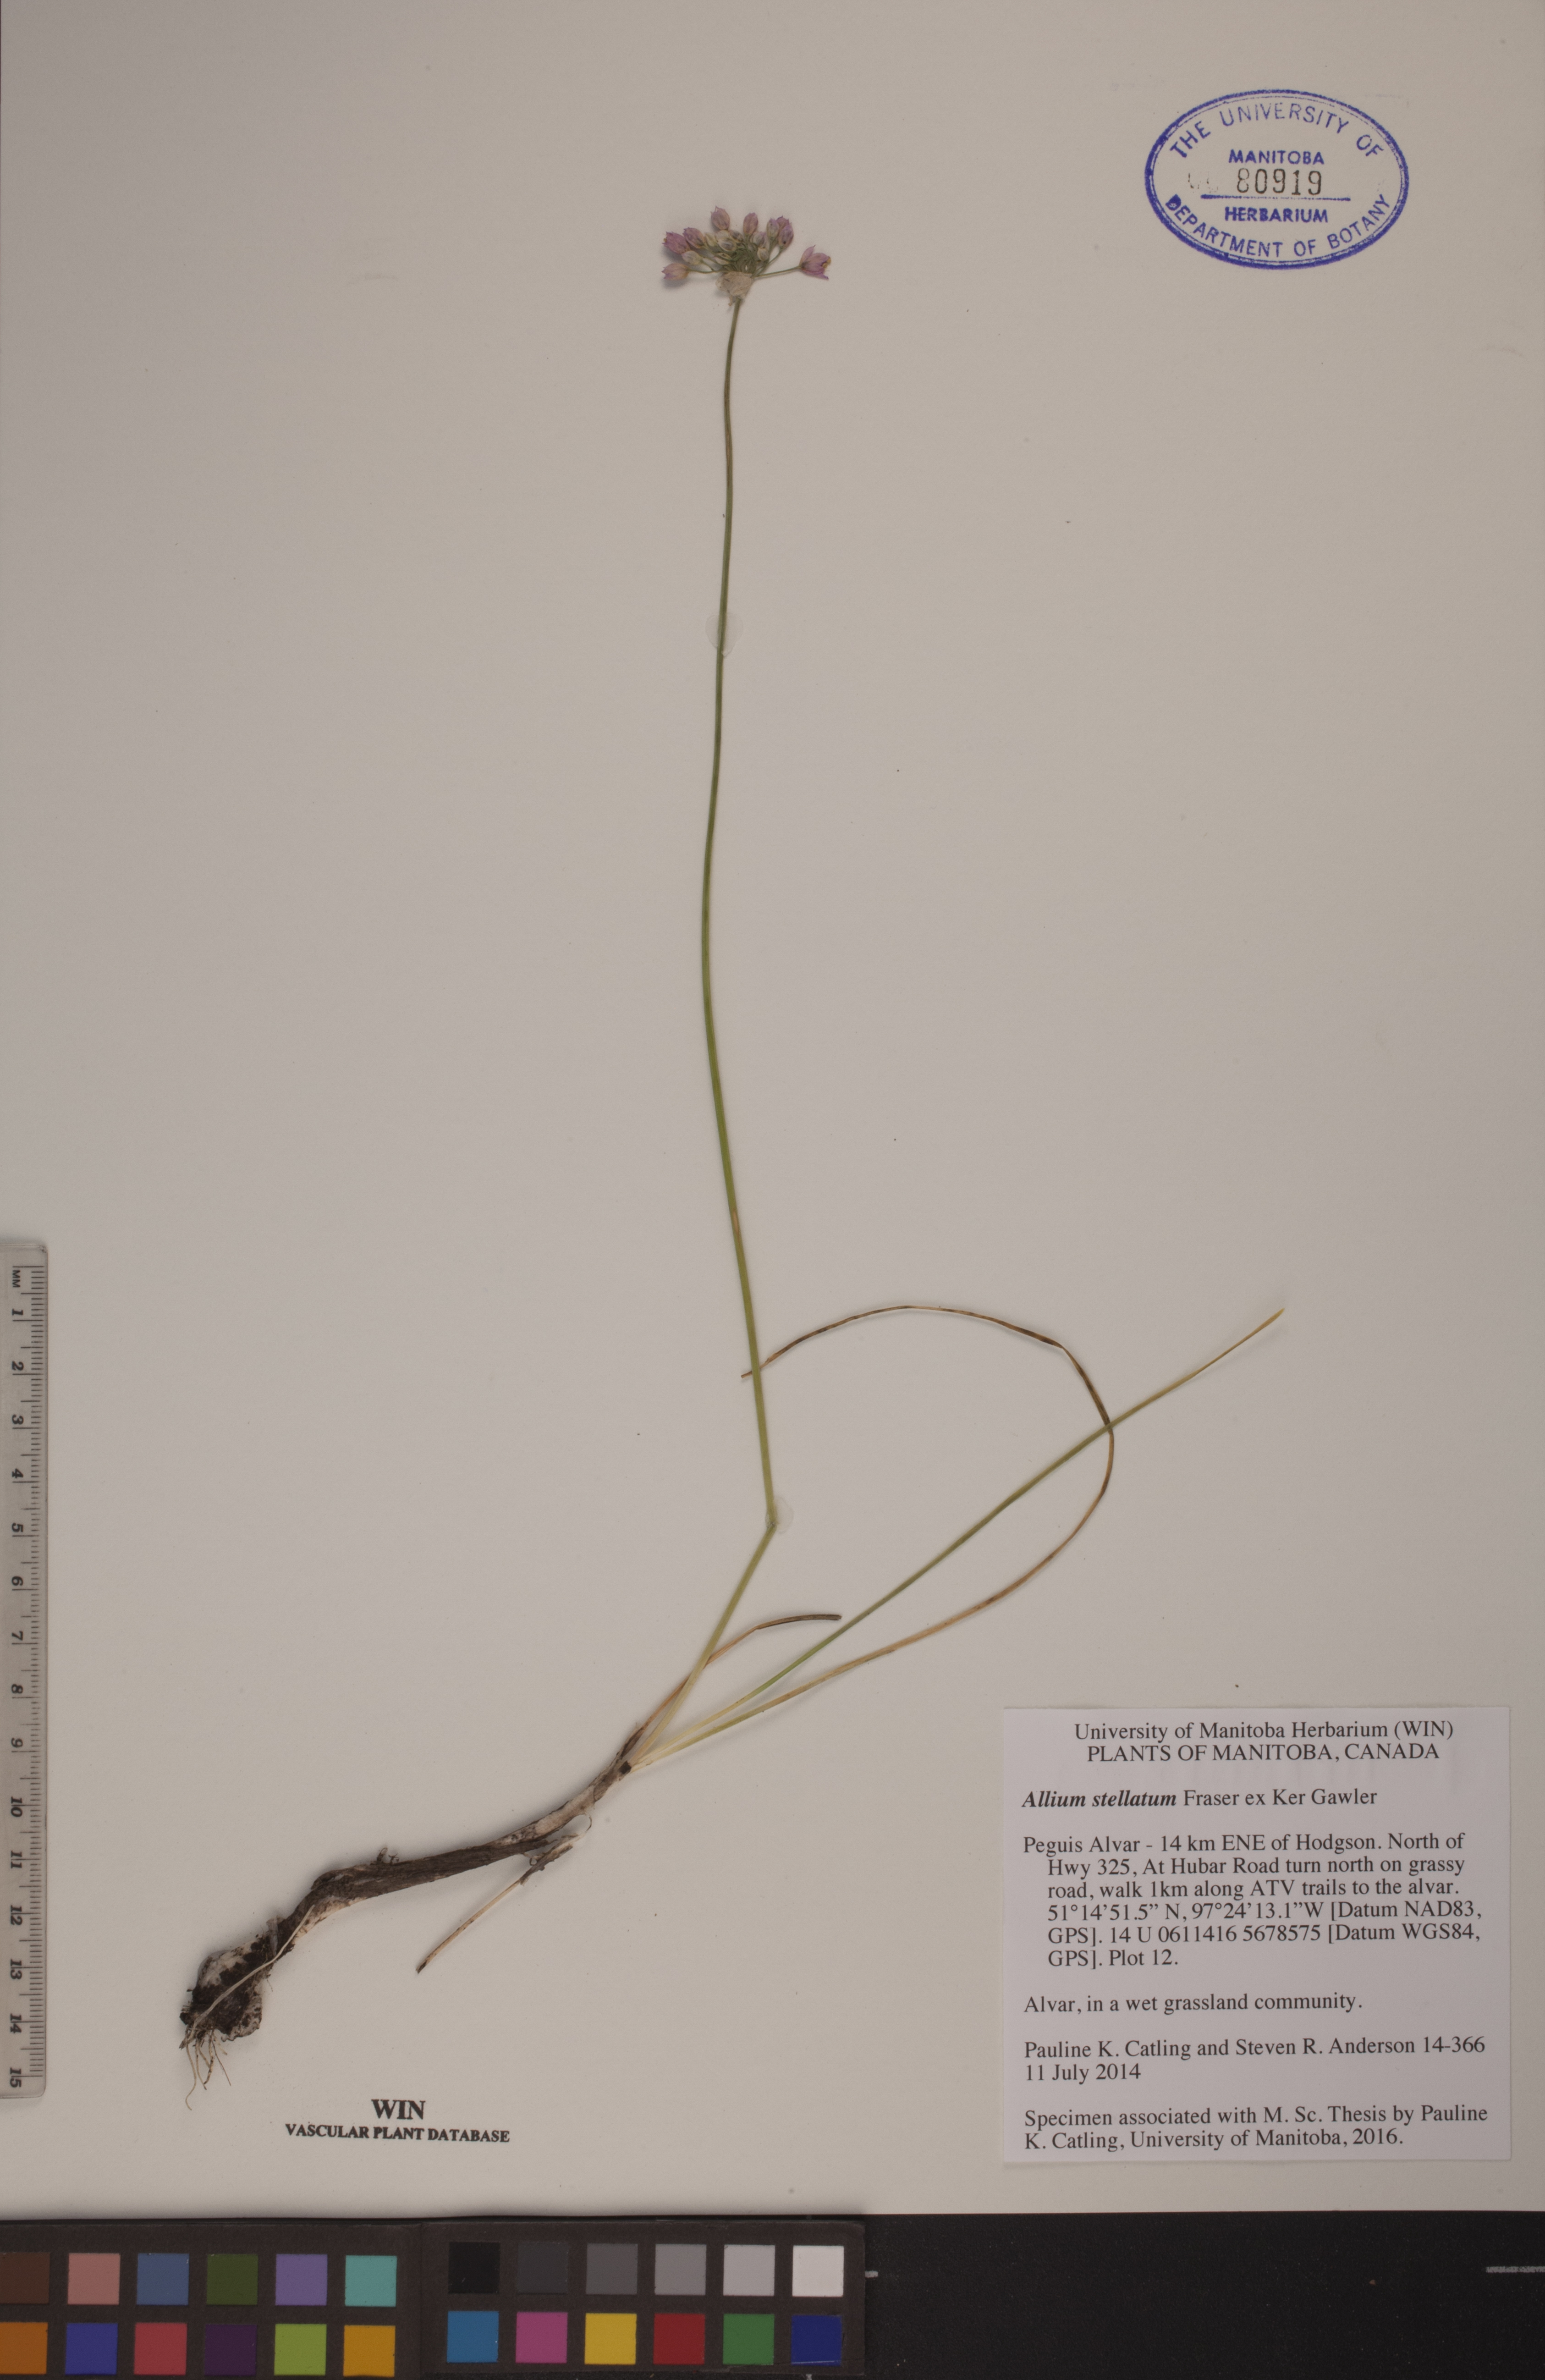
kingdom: Plantae
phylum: Tracheophyta
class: Liliopsida
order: Asparagales
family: Amaryllidaceae
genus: Allium
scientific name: Allium stellatum
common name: Autumn onion
